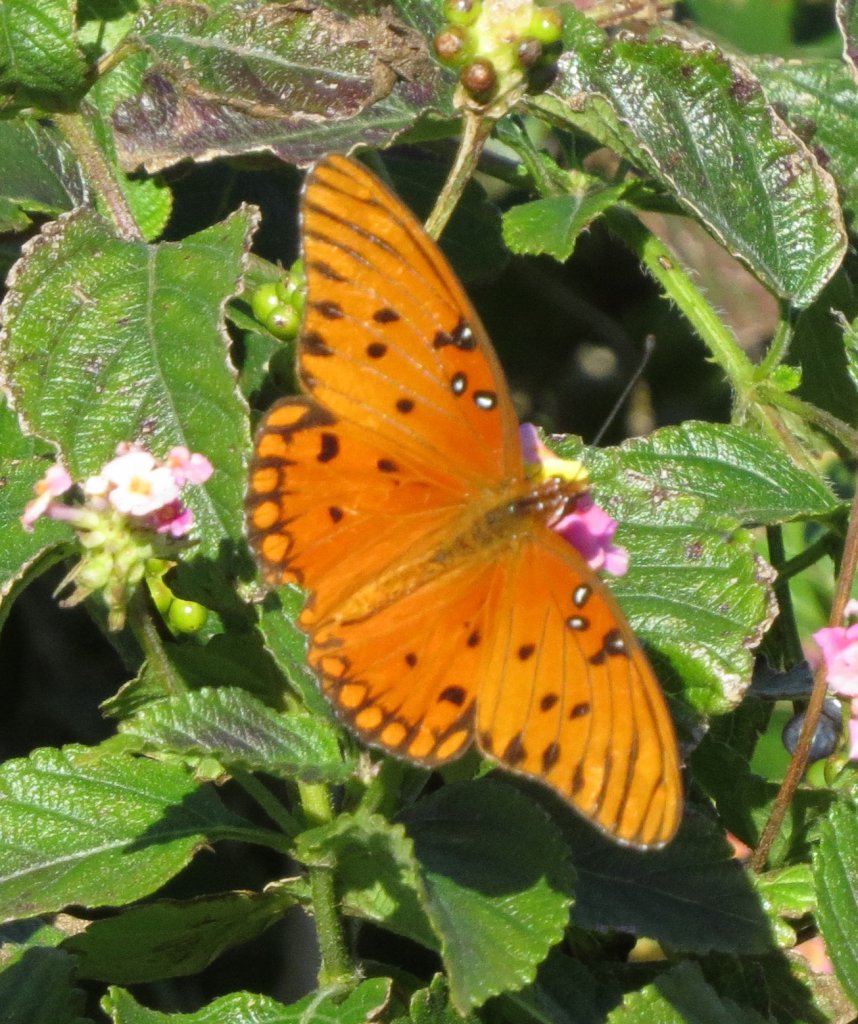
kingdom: Animalia
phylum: Arthropoda
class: Insecta
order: Lepidoptera
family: Nymphalidae
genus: Dione
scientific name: Dione vanillae
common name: Gulf Fritillary
